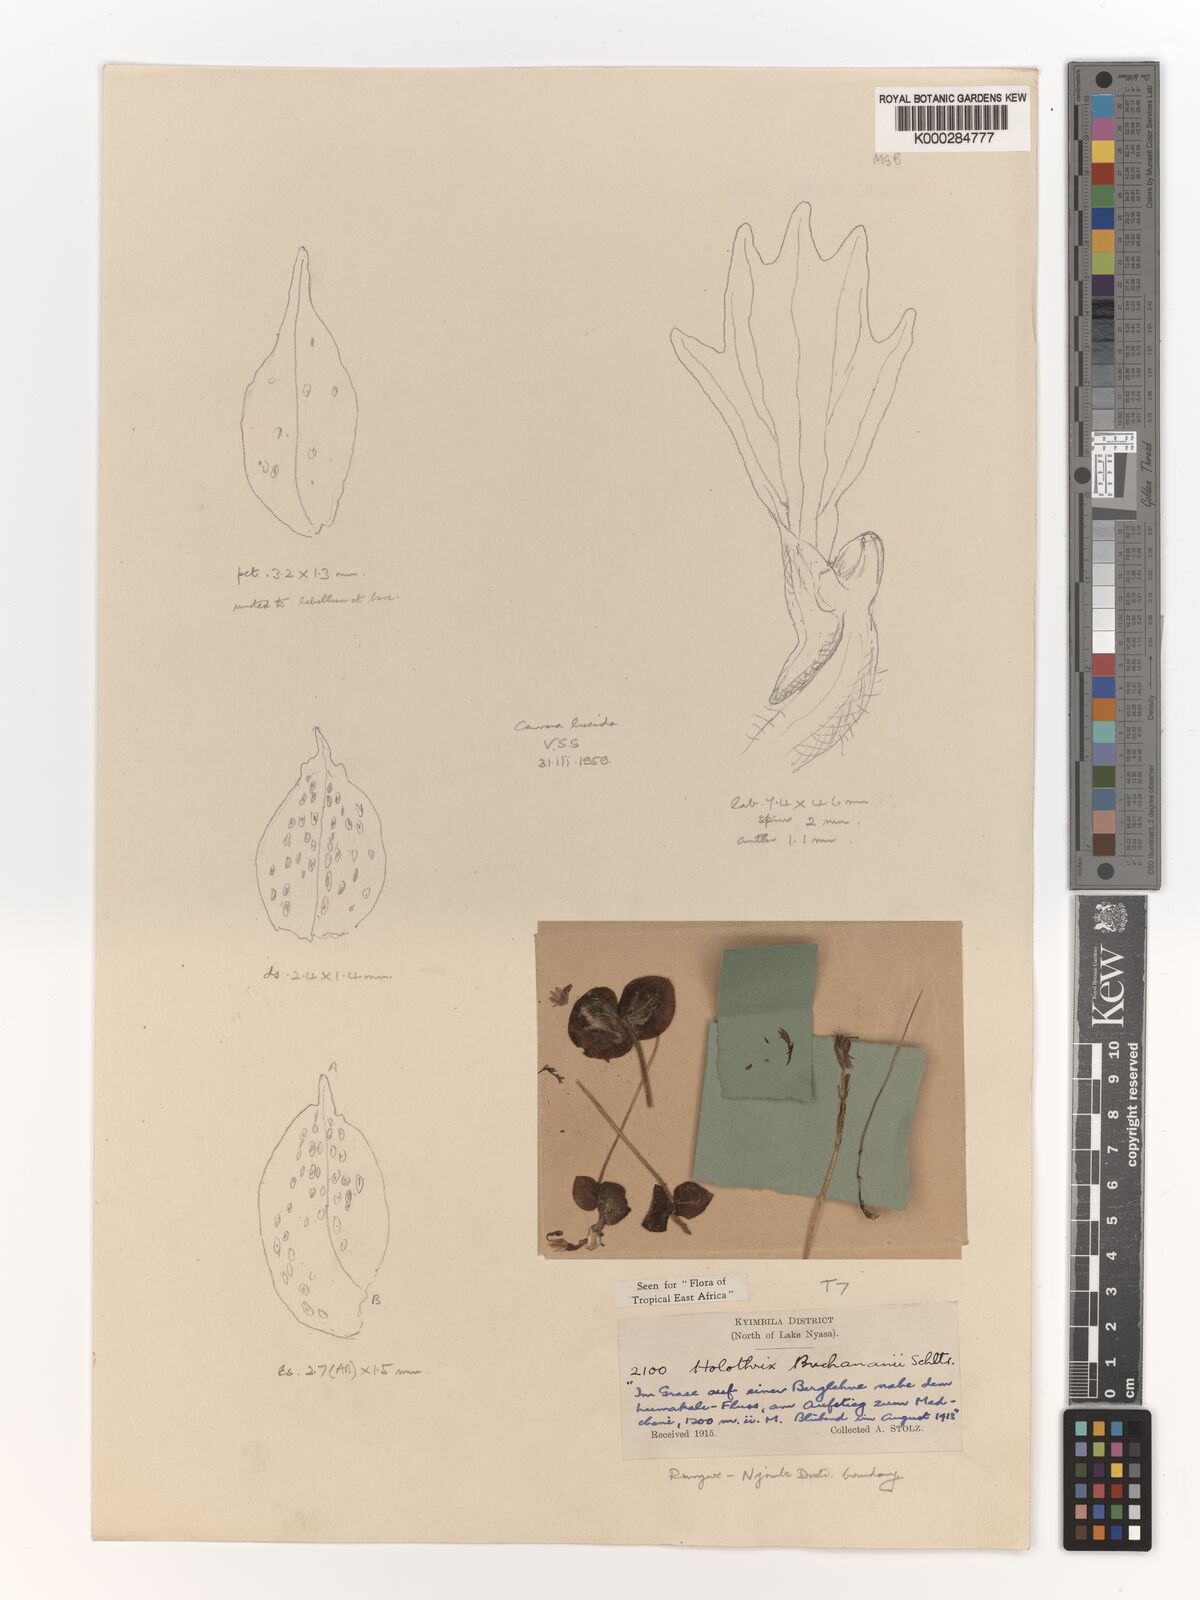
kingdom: Plantae
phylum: Tracheophyta
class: Liliopsida
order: Asparagales
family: Orchidaceae
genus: Holothrix
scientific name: Holothrix buchananii
